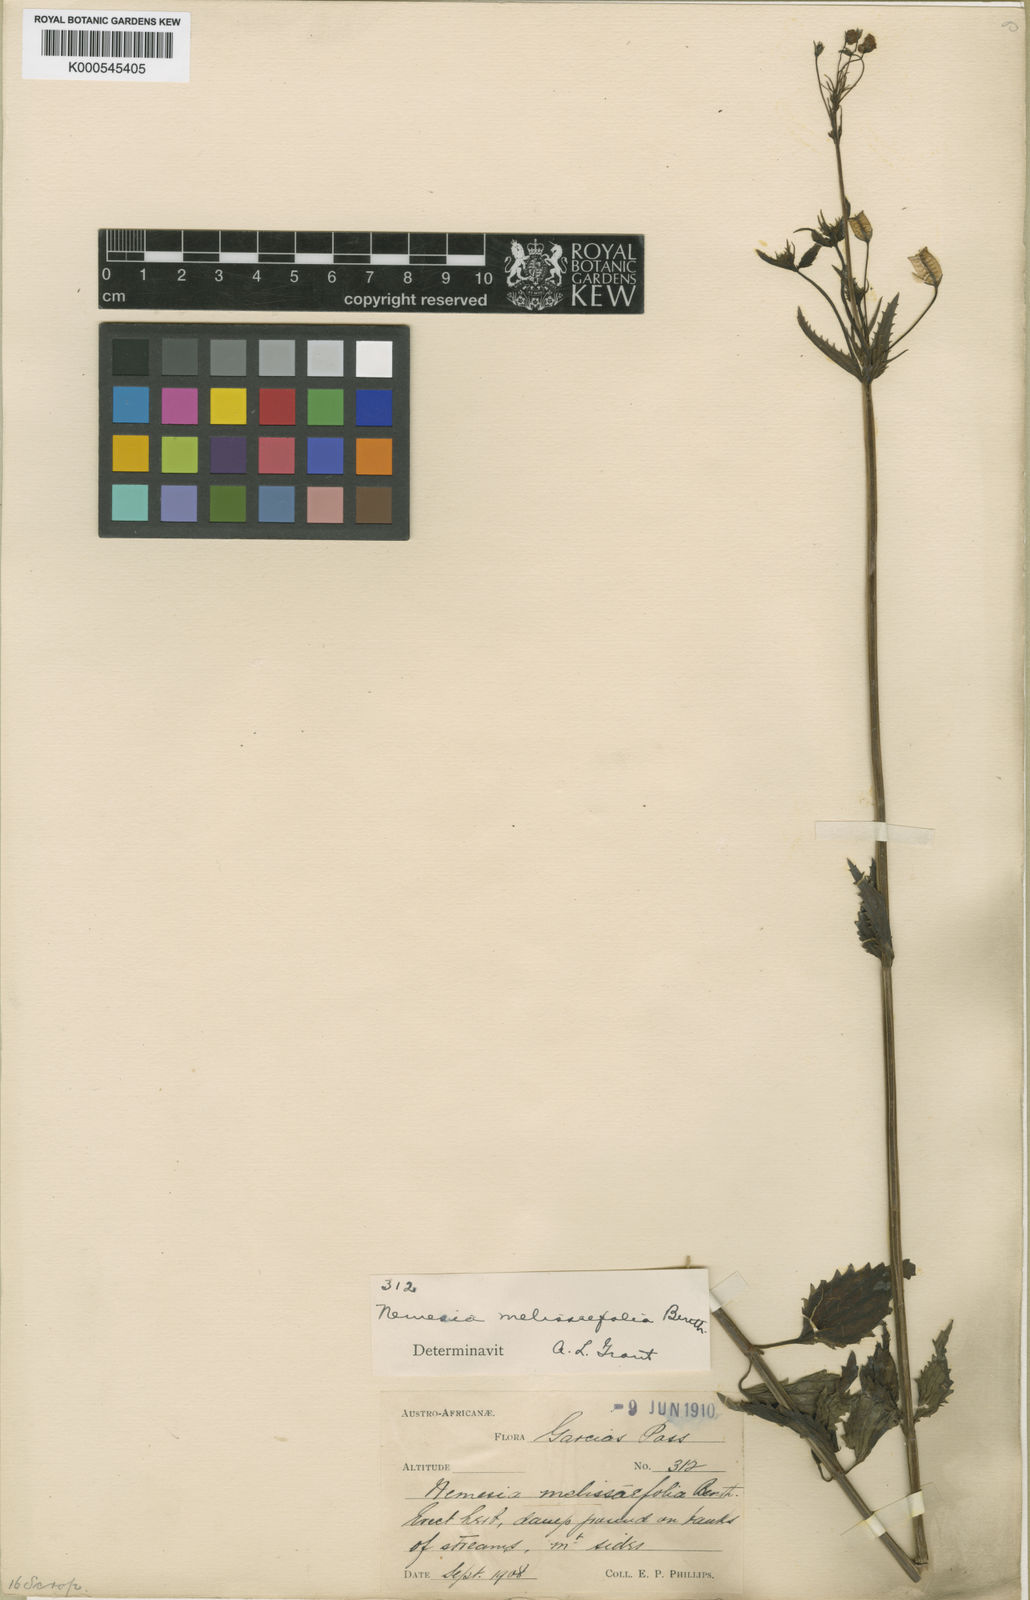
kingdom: Plantae
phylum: Tracheophyta
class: Magnoliopsida
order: Lamiales
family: Scrophulariaceae
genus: Nemesia
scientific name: Nemesia melissifolia
